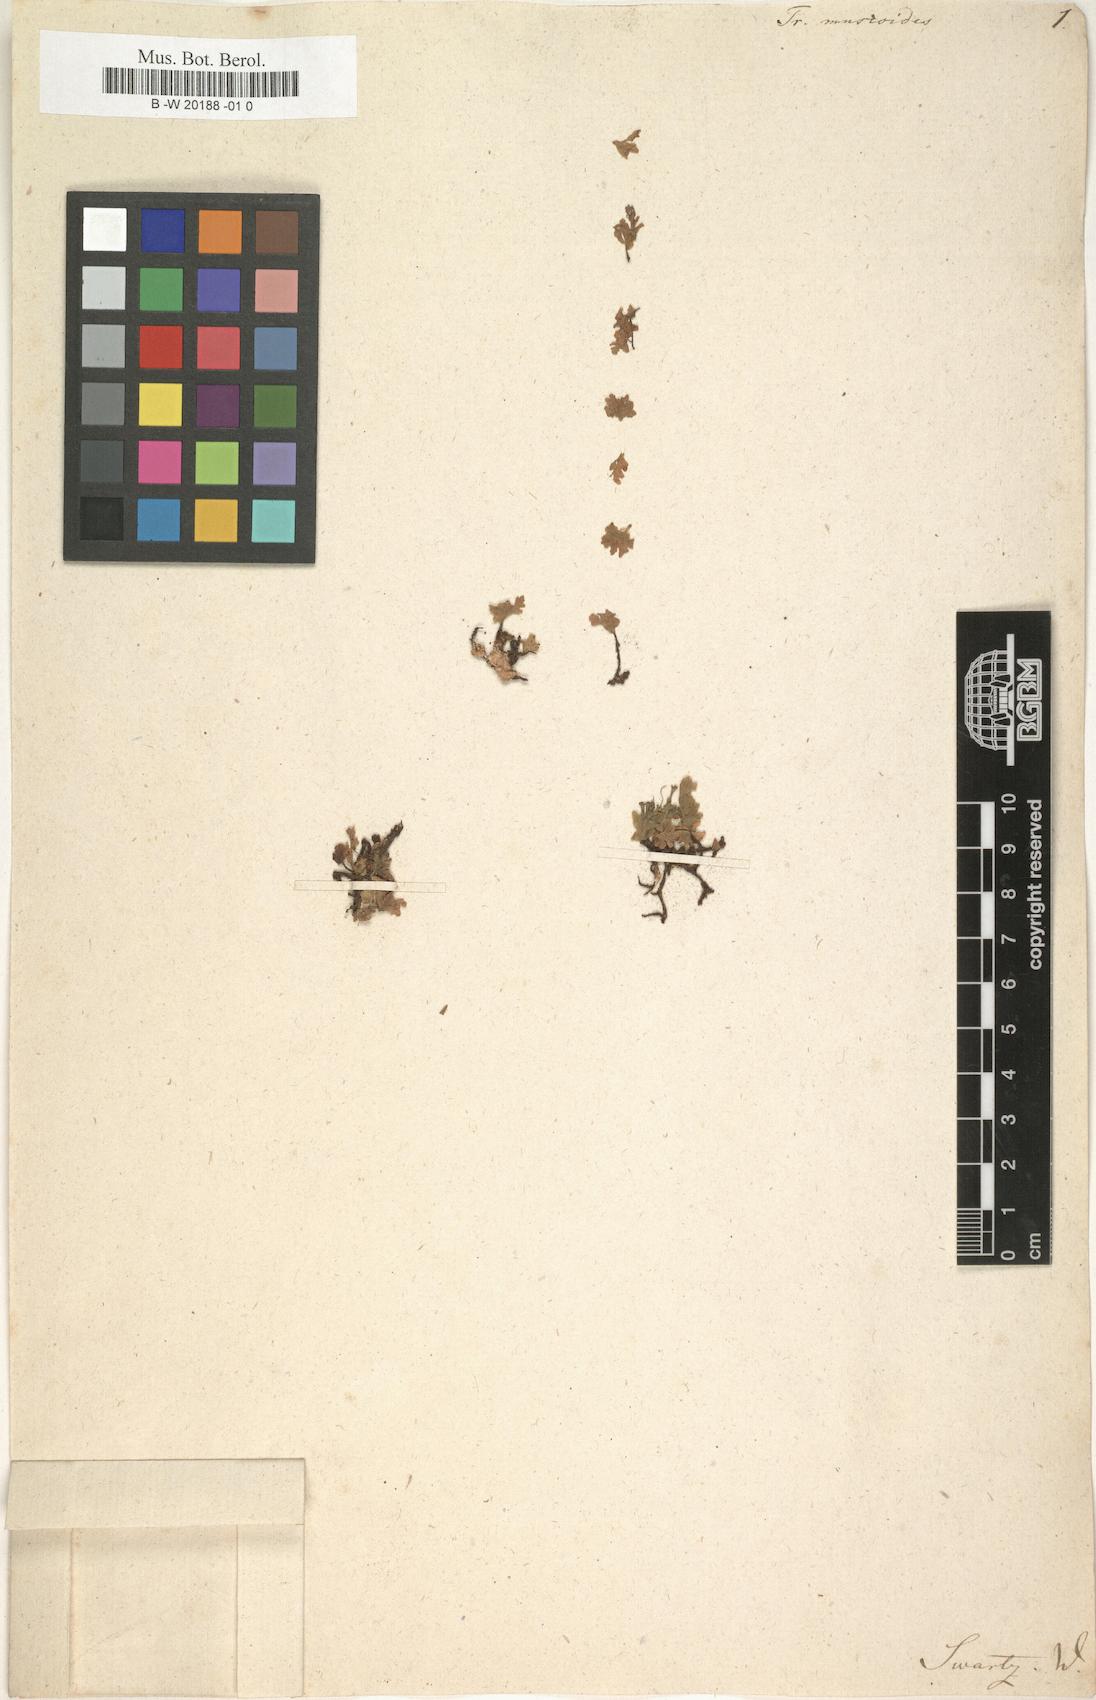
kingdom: Plantae
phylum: Tracheophyta
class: Polypodiopsida
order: Hymenophyllales
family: Hymenophyllaceae
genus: Didymoglossum
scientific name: Didymoglossum
